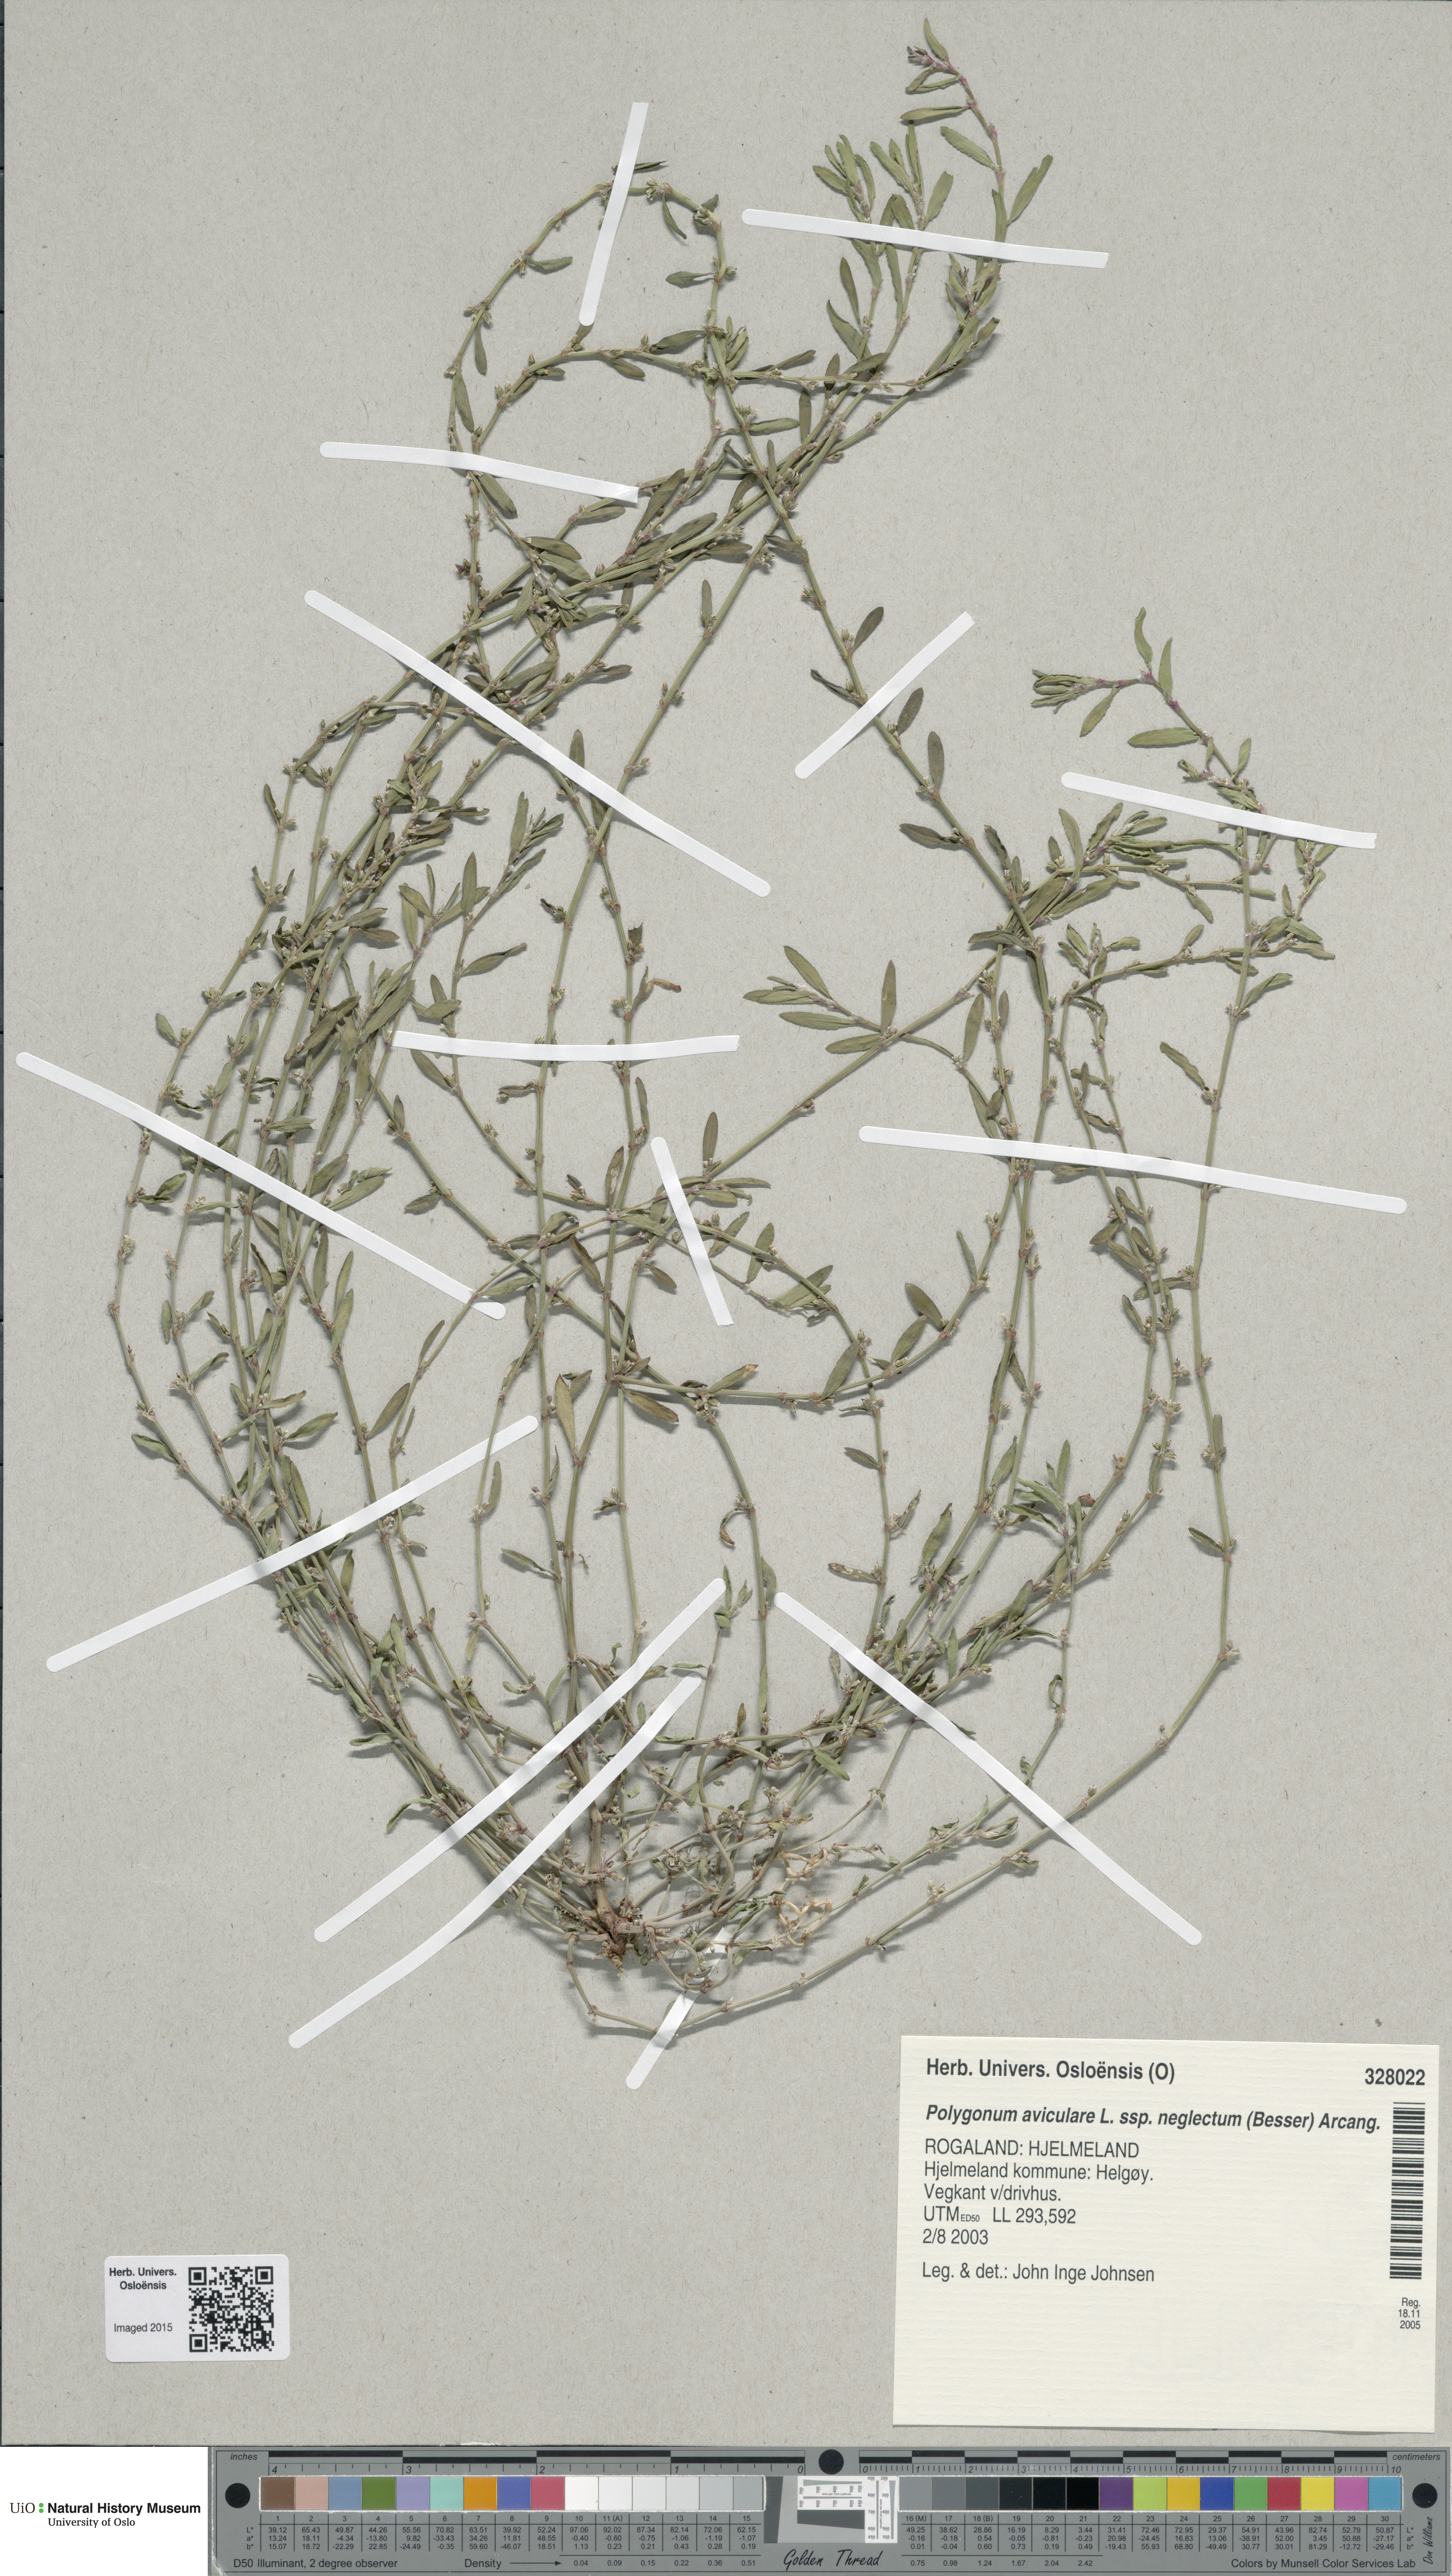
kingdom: Plantae
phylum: Tracheophyta
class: Magnoliopsida
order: Caryophyllales
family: Polygonaceae
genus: Polygonum
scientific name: Polygonum aviculare
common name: Prostrate knotweed
